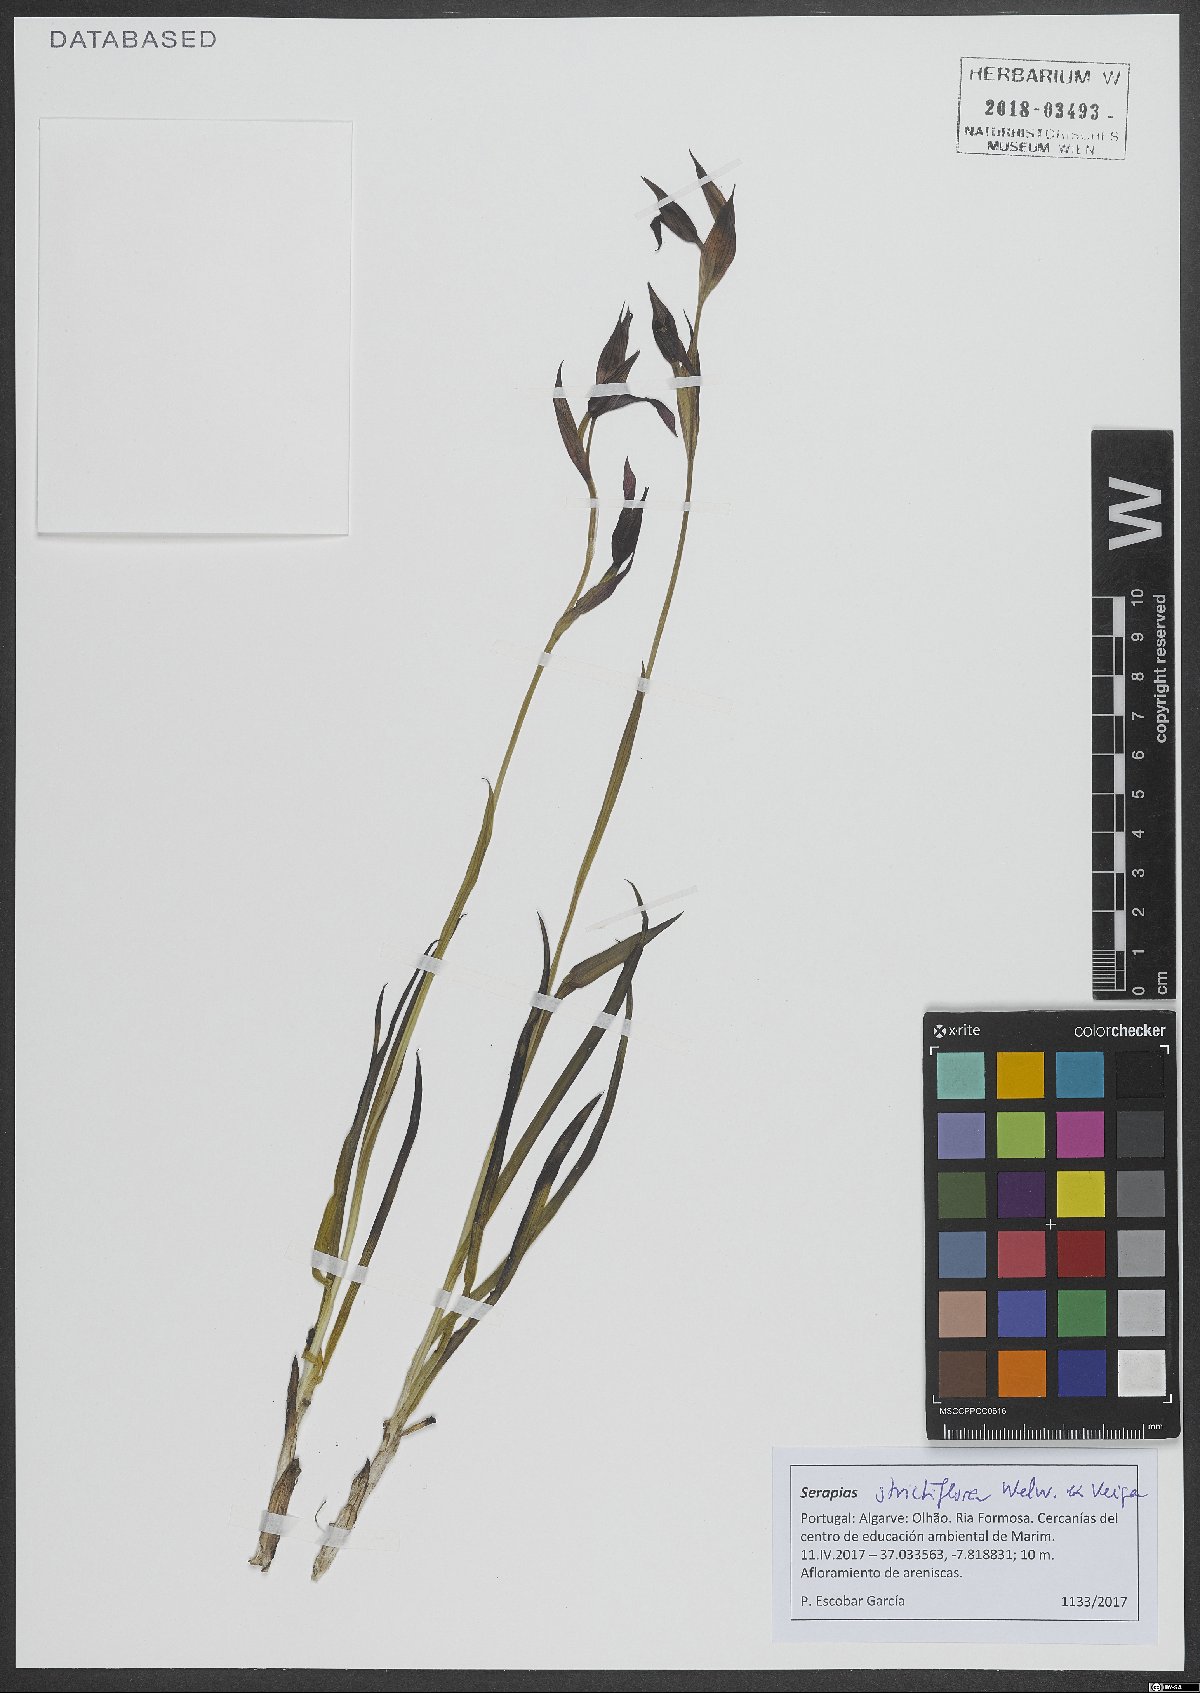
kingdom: Plantae
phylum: Tracheophyta
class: Liliopsida
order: Asparagales
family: Orchidaceae
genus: Serapias
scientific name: Serapias strictiflora
